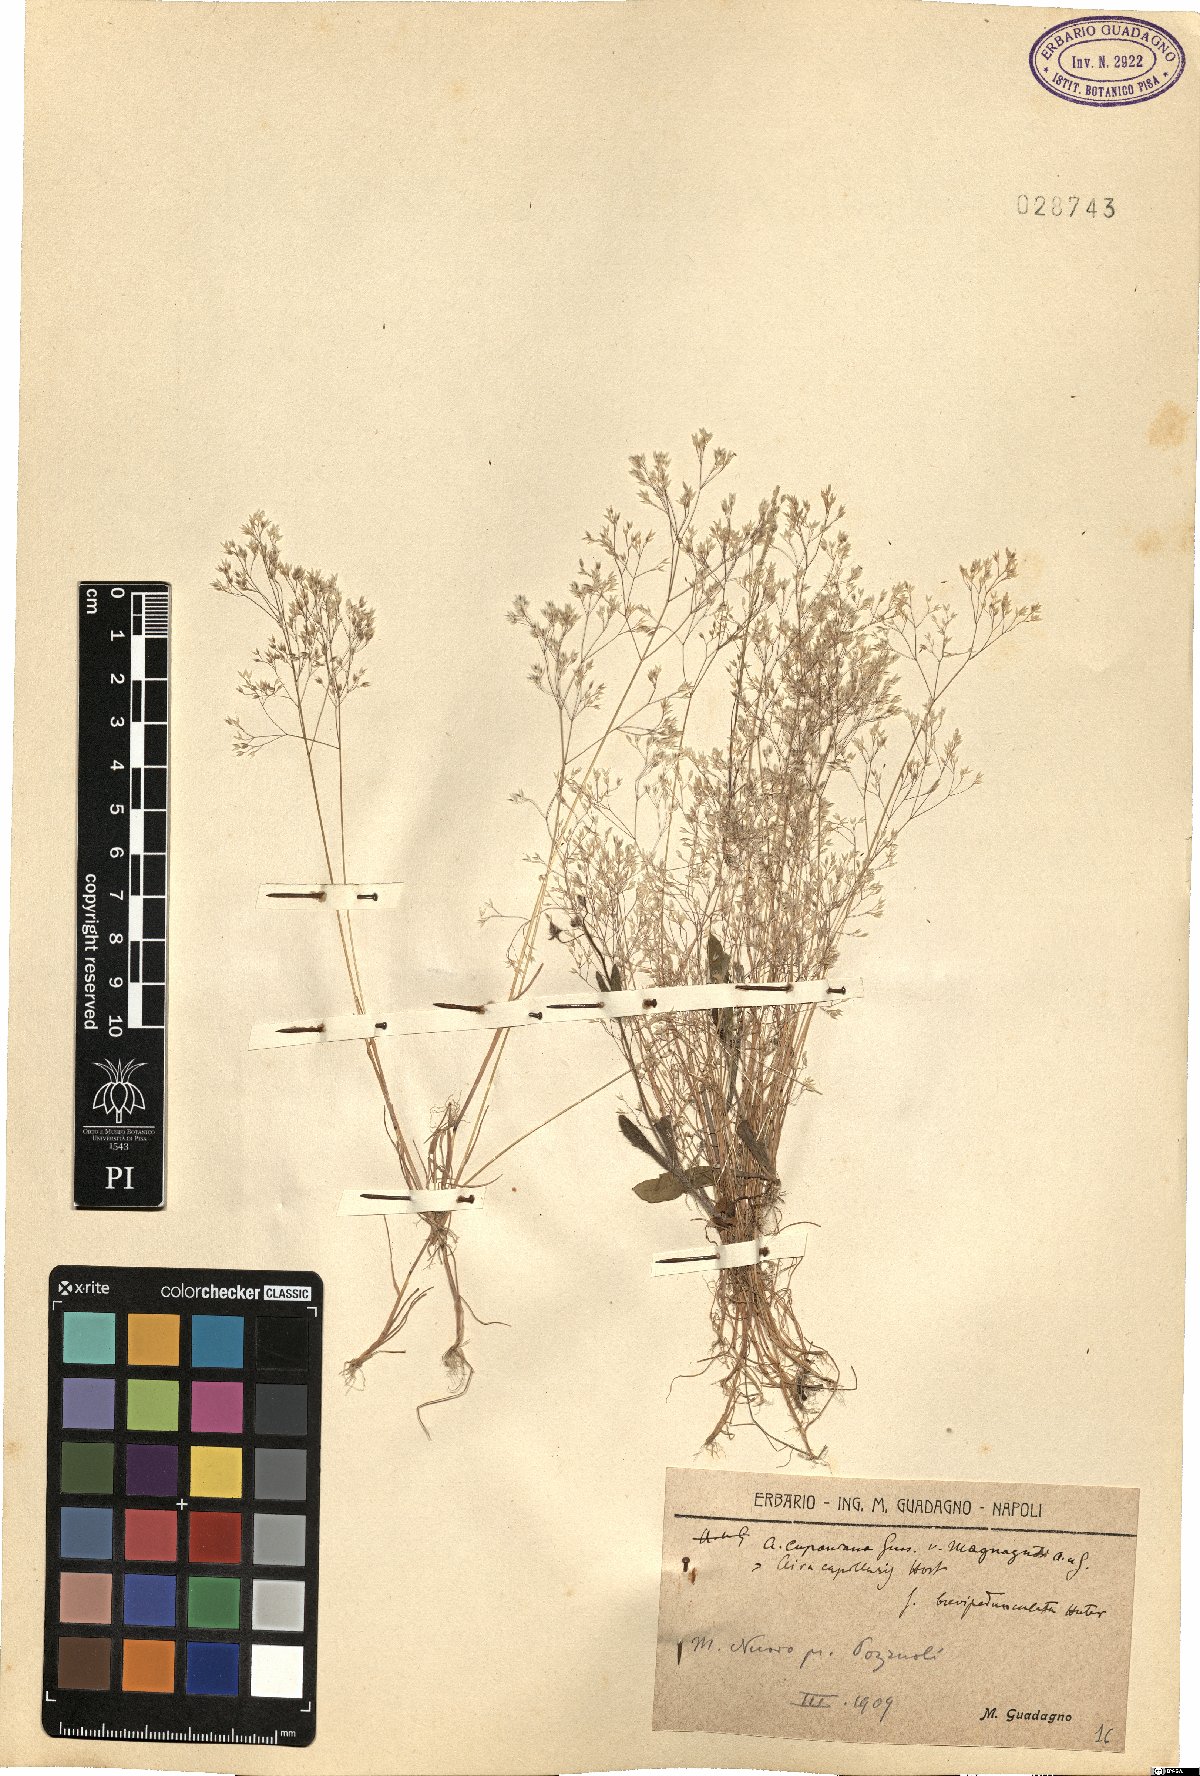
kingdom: Plantae
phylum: Tracheophyta
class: Liliopsida
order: Poales
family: Poaceae
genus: Aira
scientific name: Aira cupaniana
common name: Silver hairgrass
